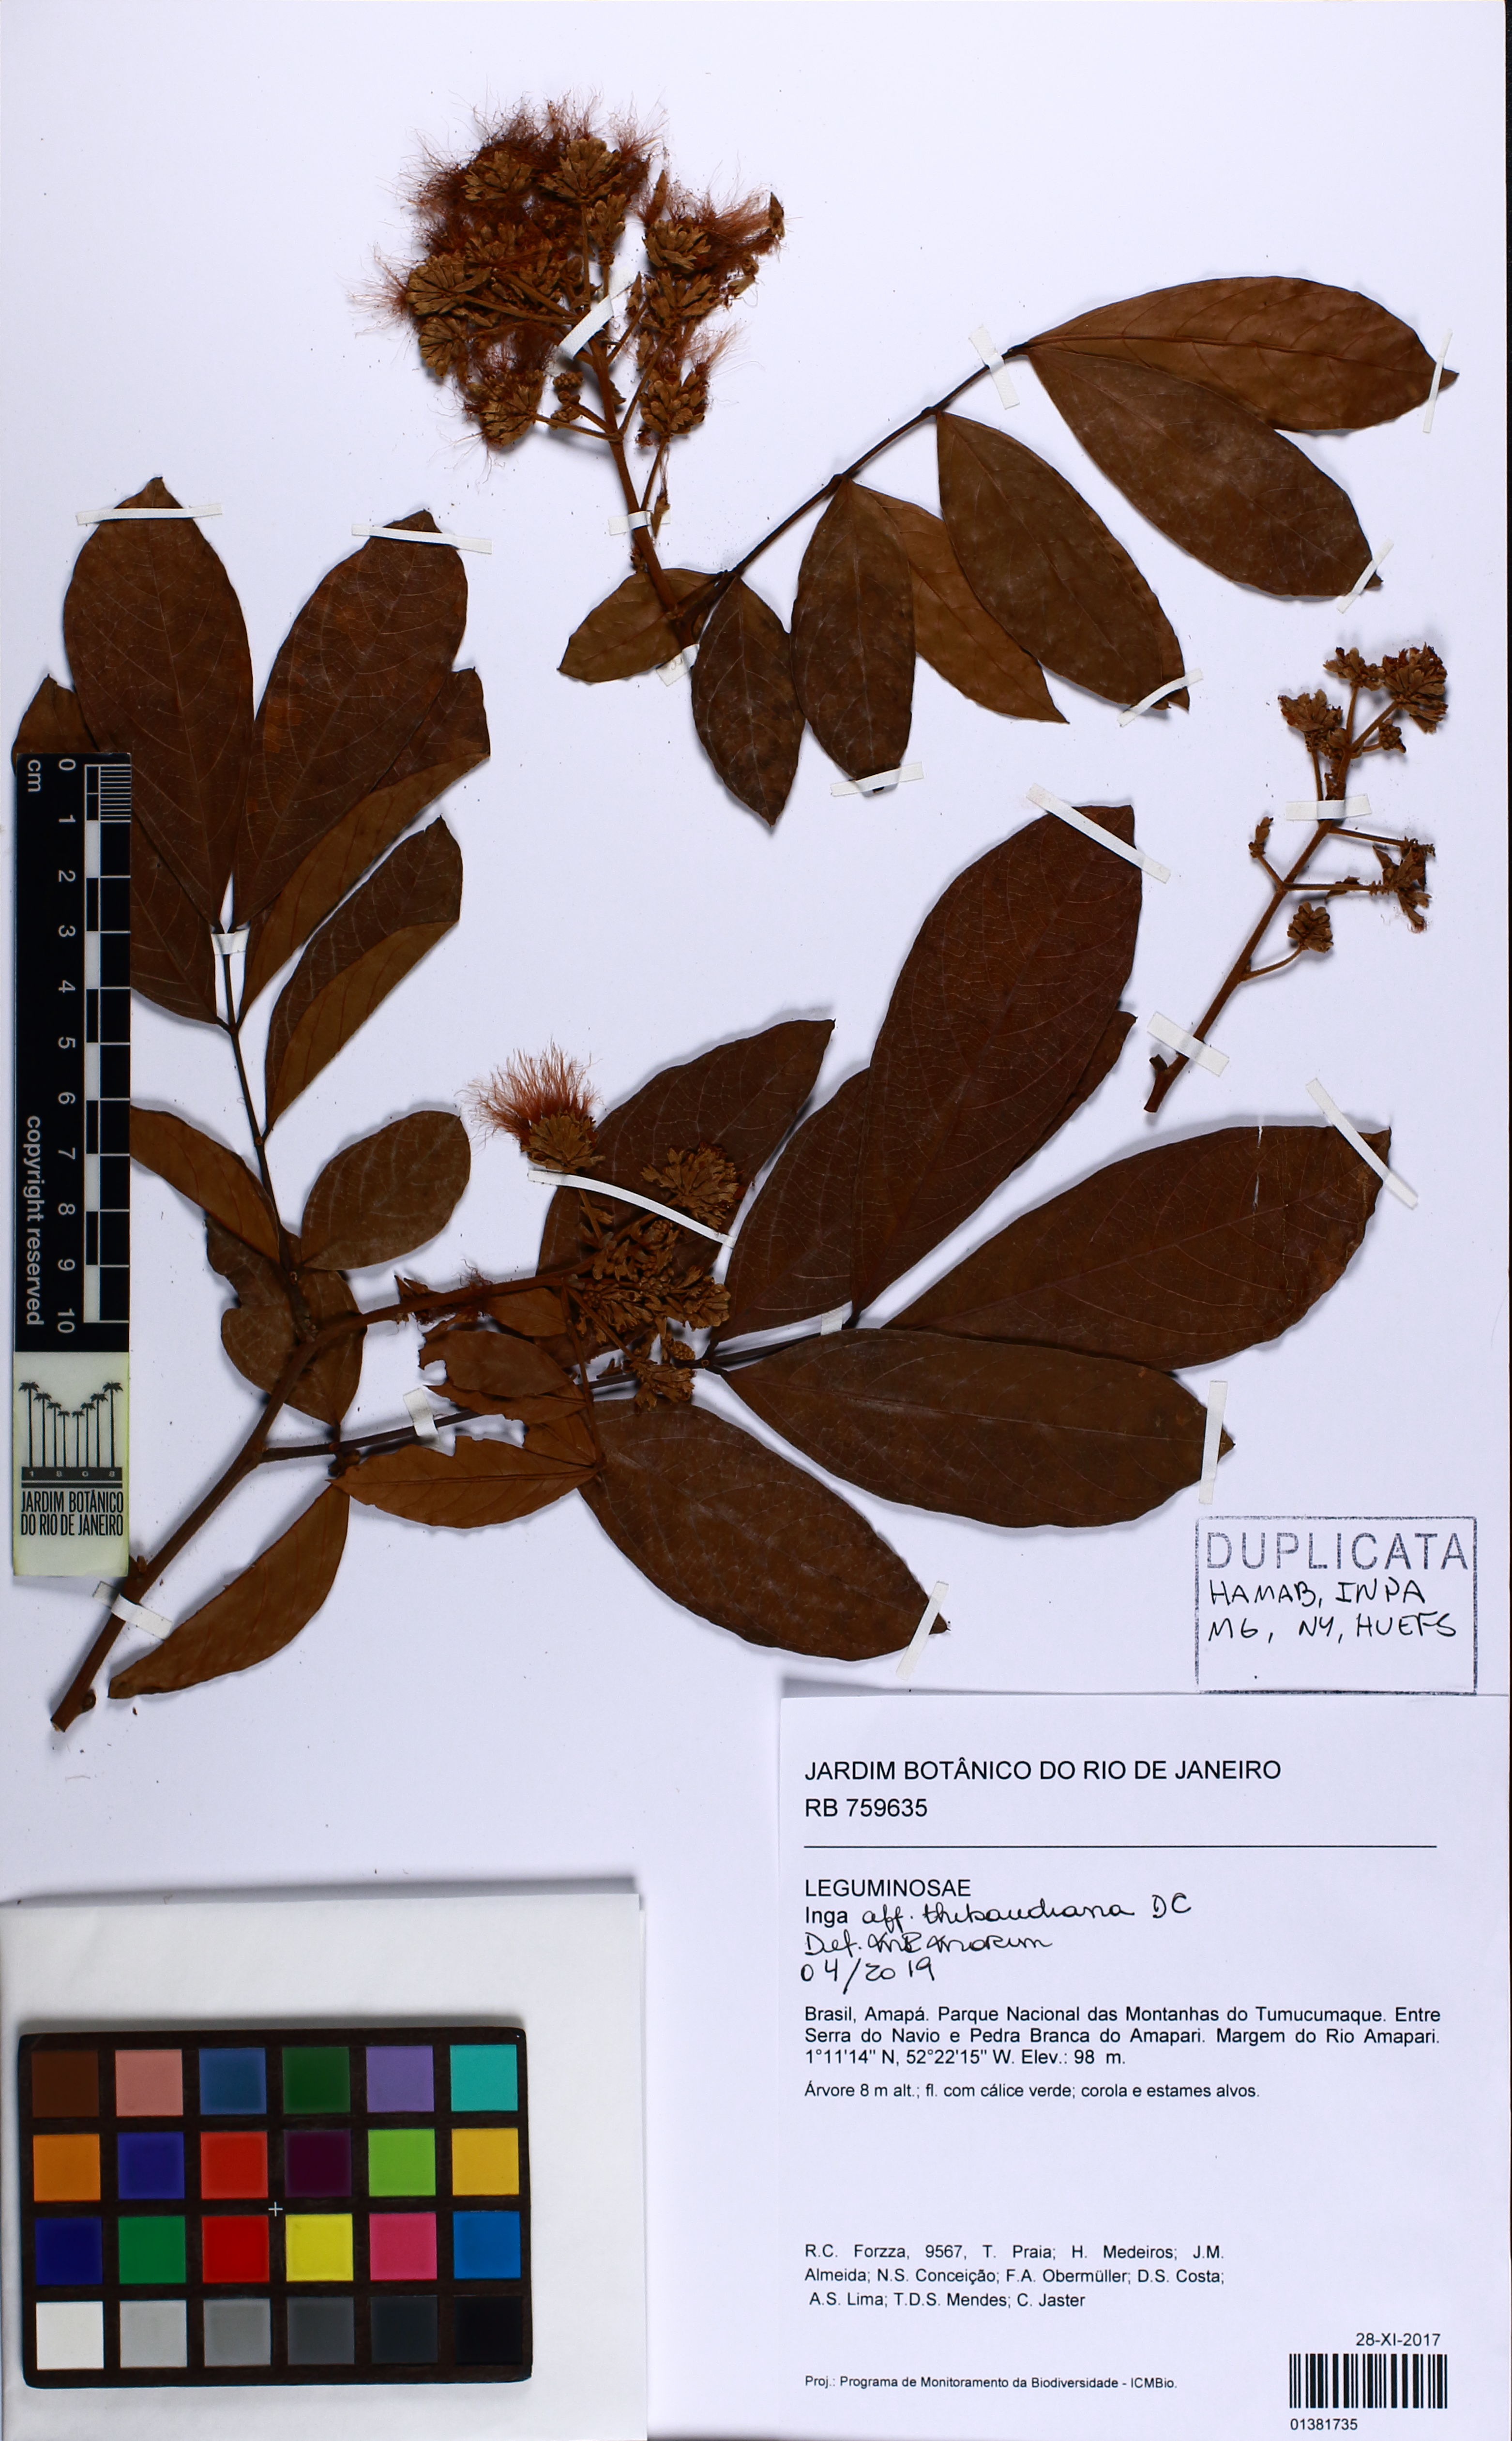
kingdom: Plantae
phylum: Tracheophyta
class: Magnoliopsida
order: Fabales
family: Fabaceae
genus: Inga
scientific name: Inga thibaudiana
